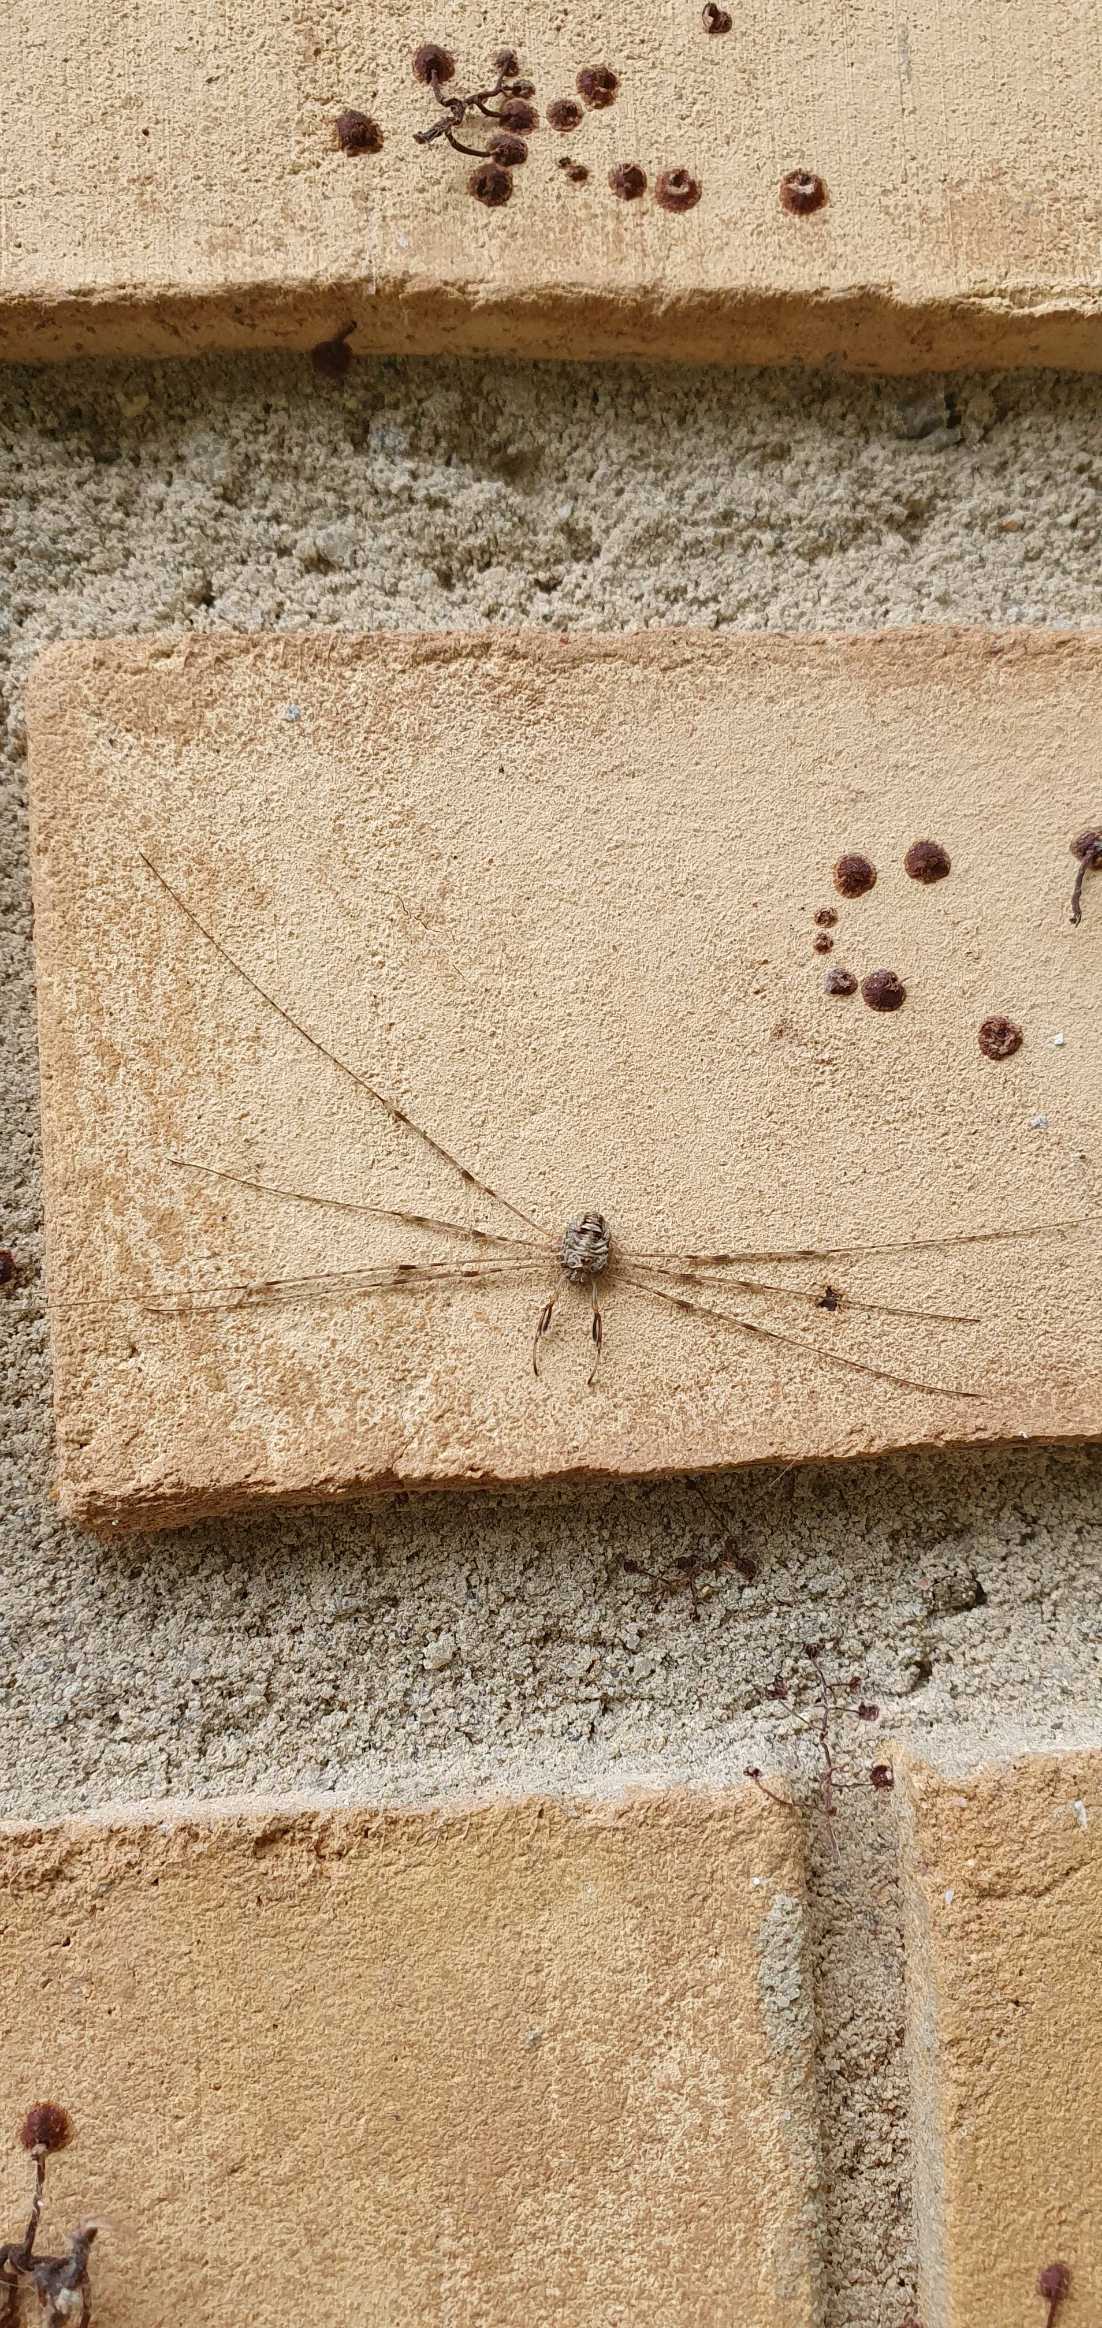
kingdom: Animalia
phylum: Arthropoda
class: Arachnida
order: Opiliones
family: Phalangiidae
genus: Dicranopalpus
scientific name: Dicranopalpus ramosus
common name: Gaffelmejer
